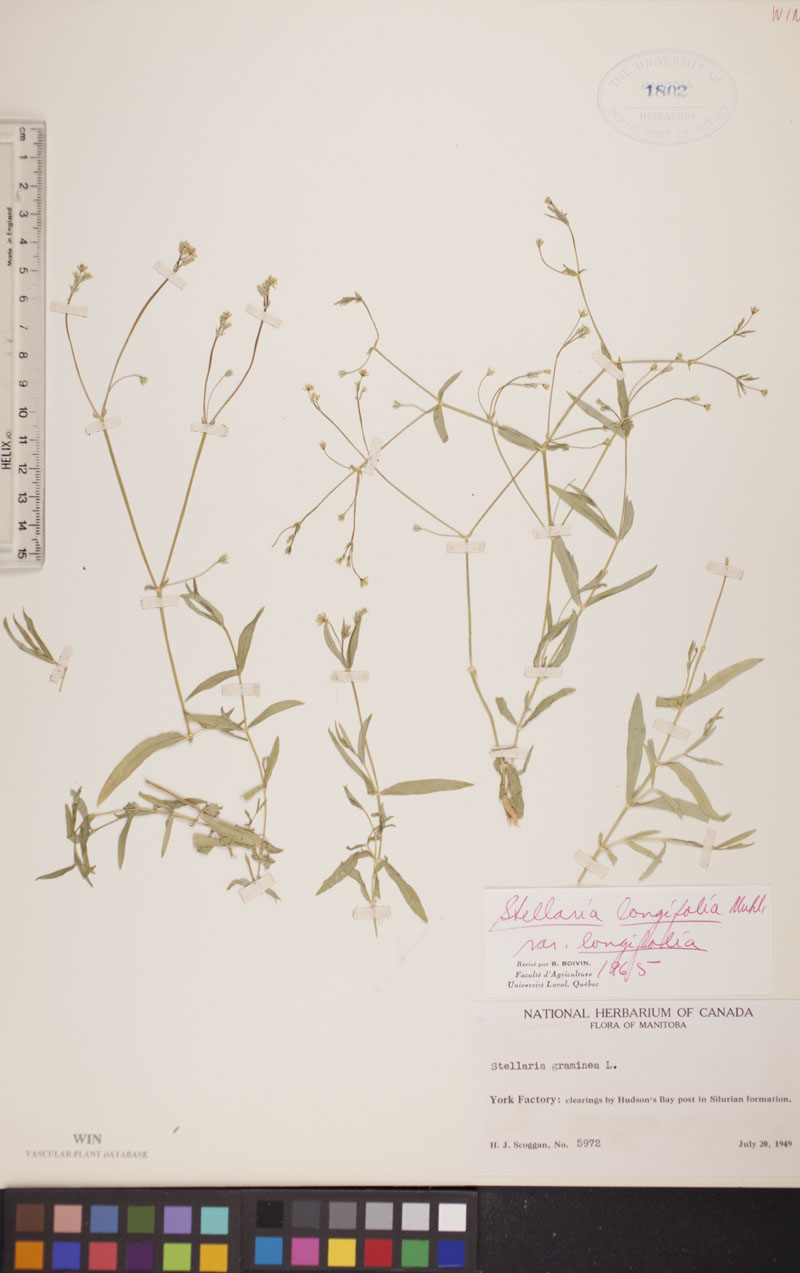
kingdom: Plantae
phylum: Tracheophyta
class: Magnoliopsida
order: Caryophyllales
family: Caryophyllaceae
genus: Stellaria
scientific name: Stellaria longifolia
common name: Long-leaved chickweed
